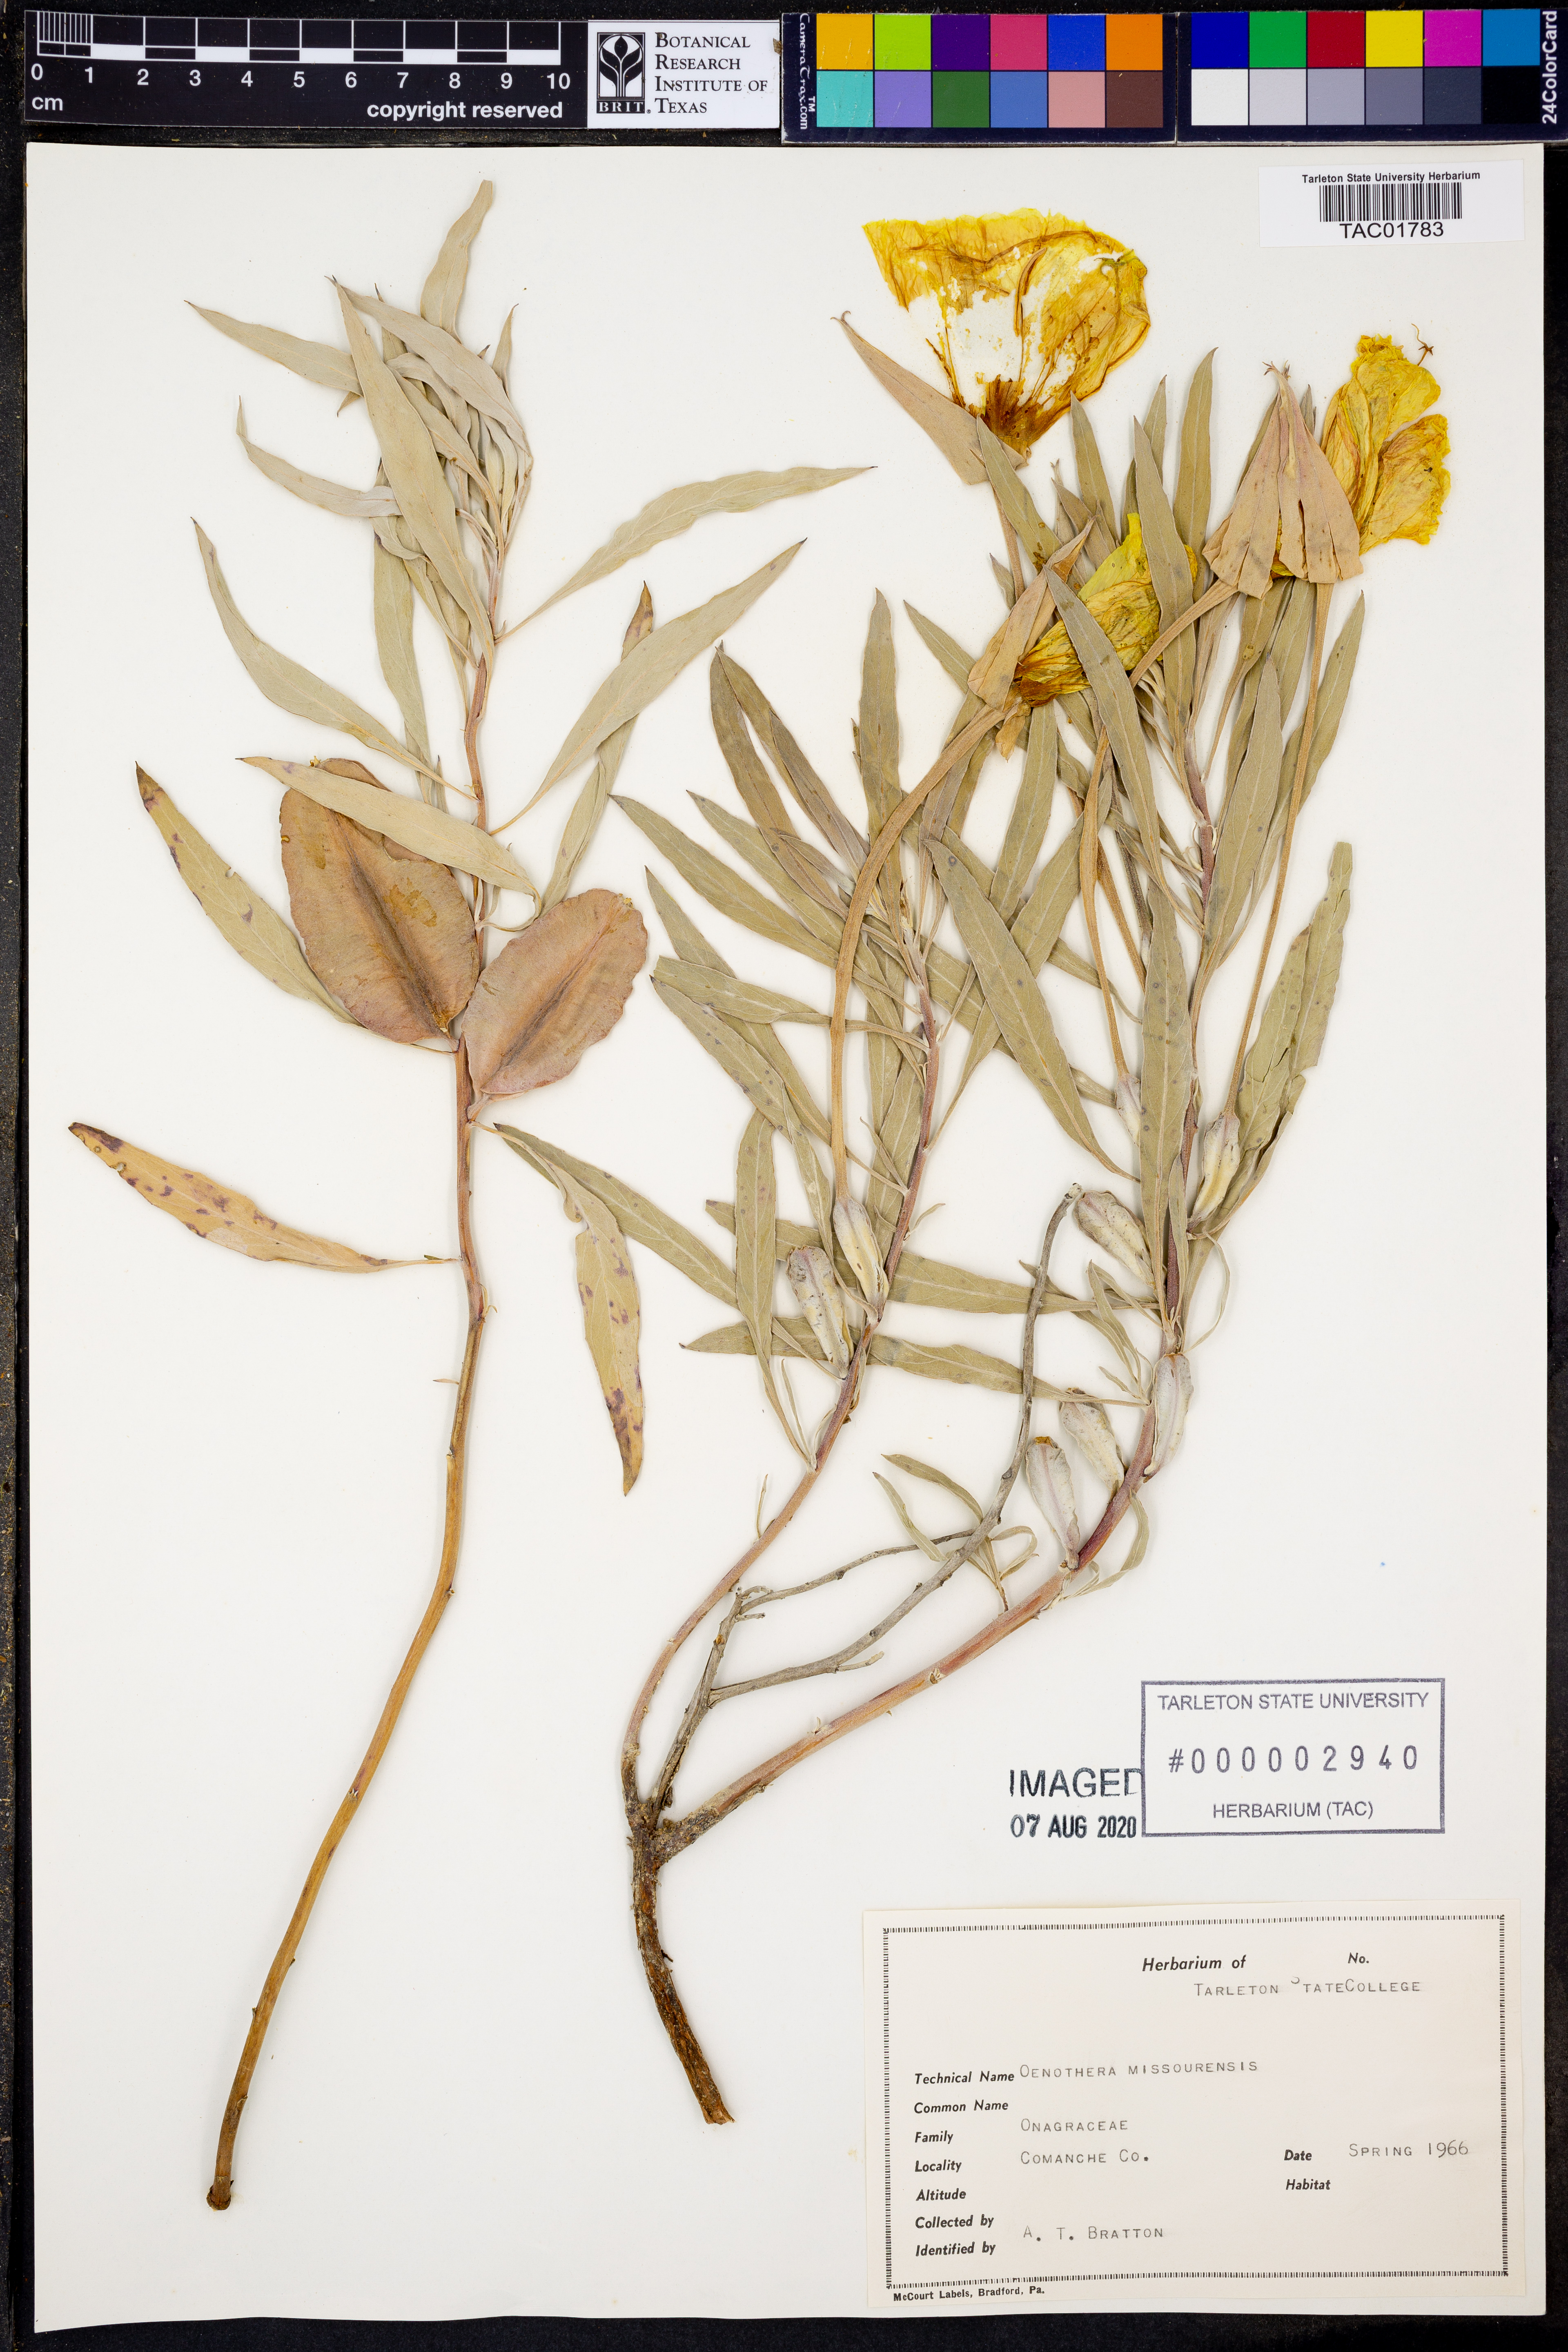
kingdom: Plantae
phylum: Tracheophyta
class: Magnoliopsida
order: Myrtales
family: Onagraceae
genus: Oenothera
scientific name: Oenothera macrocarpa
